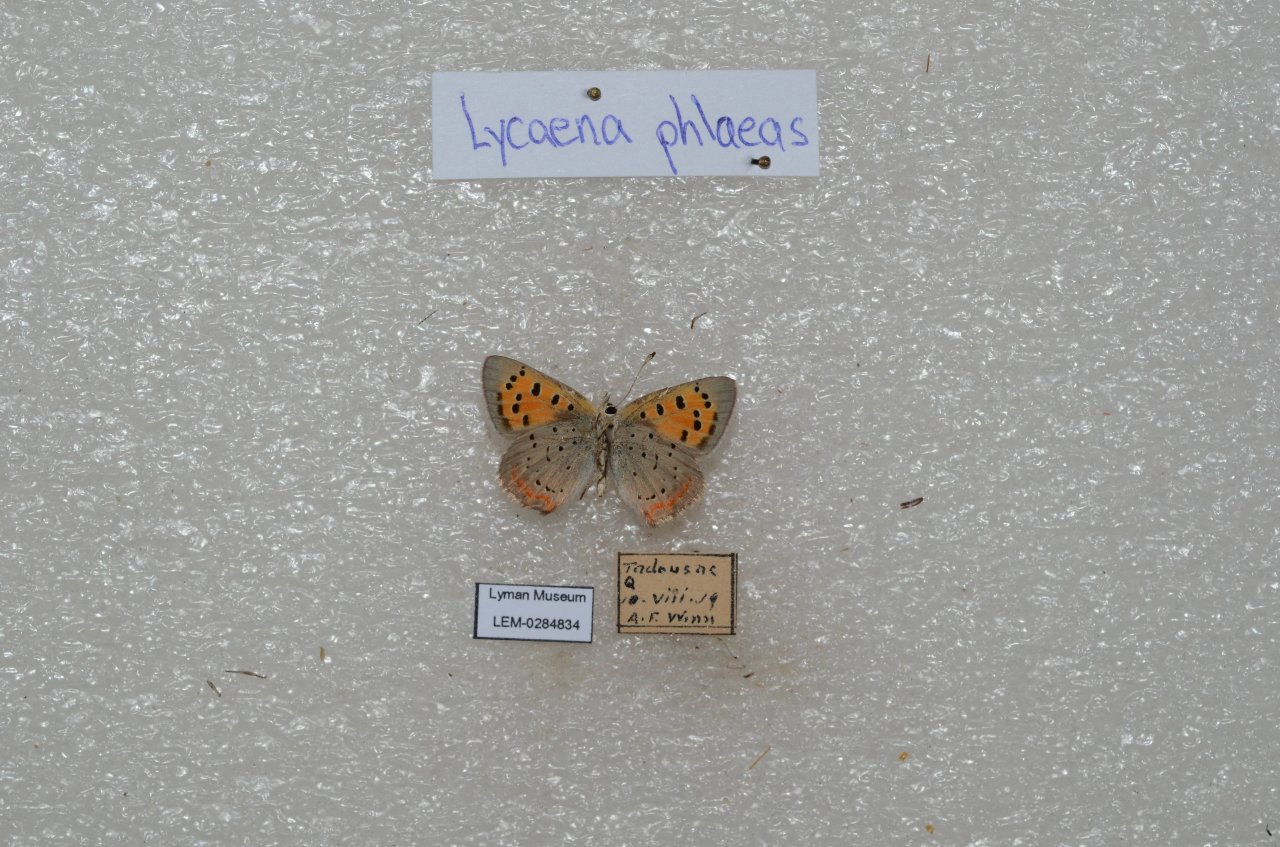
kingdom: Animalia
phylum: Arthropoda
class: Insecta
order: Lepidoptera
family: Lycaenidae
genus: Lycaena
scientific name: Lycaena phlaeas
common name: American Copper
